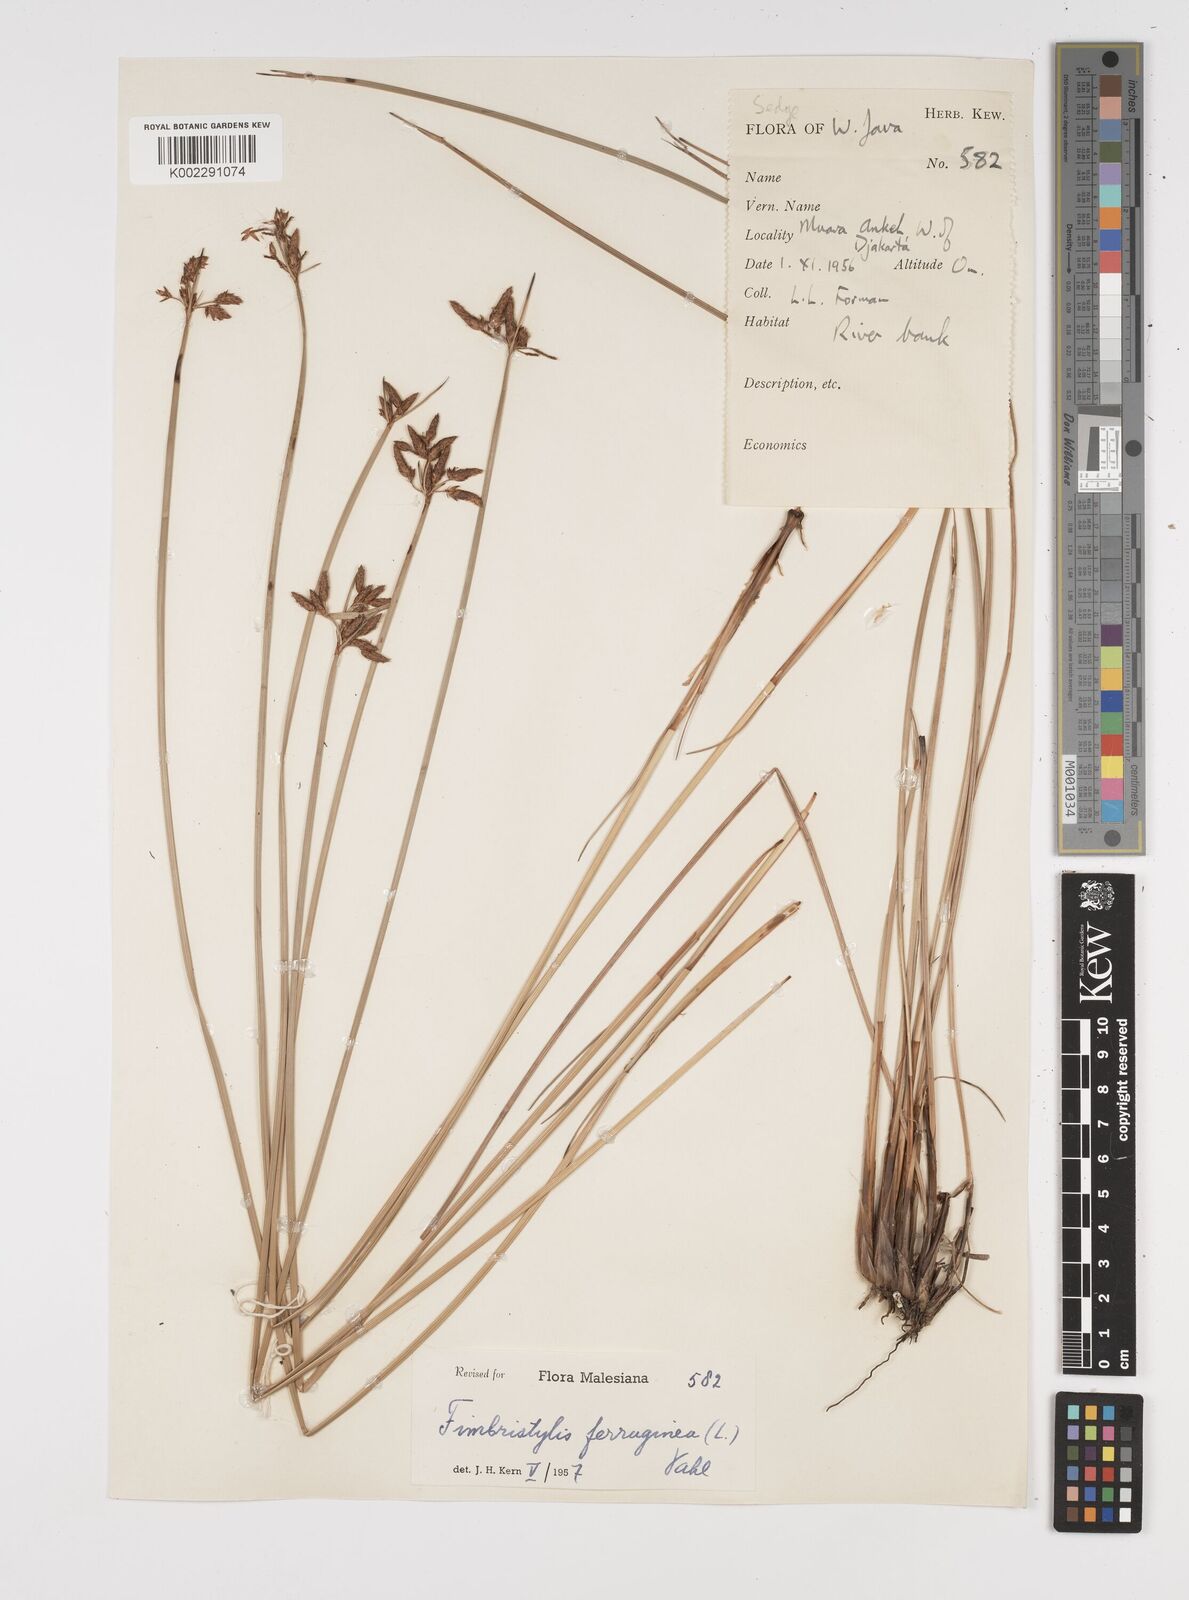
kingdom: Plantae
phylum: Tracheophyta
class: Liliopsida
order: Poales
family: Cyperaceae
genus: Fimbristylis
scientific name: Fimbristylis ferruginea
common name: West indian fimbry
